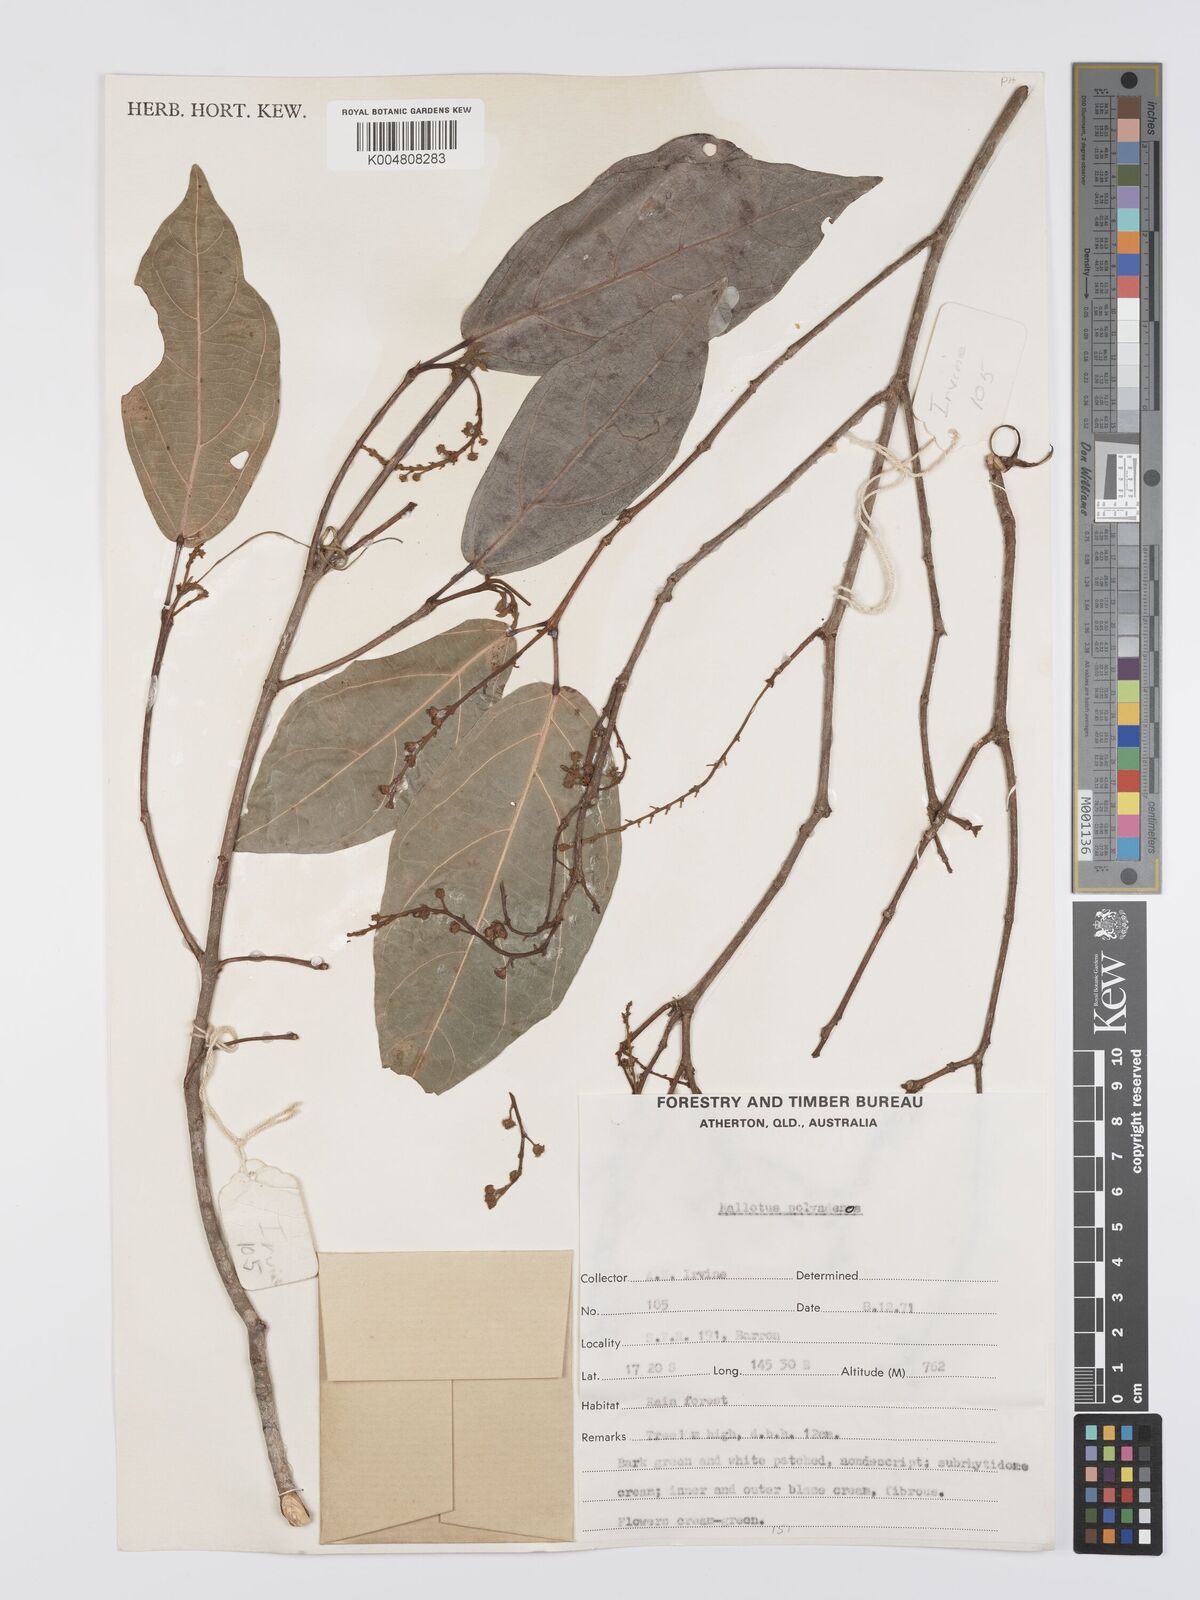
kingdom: Plantae
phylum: Tracheophyta
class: Magnoliopsida
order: Malpighiales
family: Euphorbiaceae
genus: Mallotus
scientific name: Mallotus polyadenos
